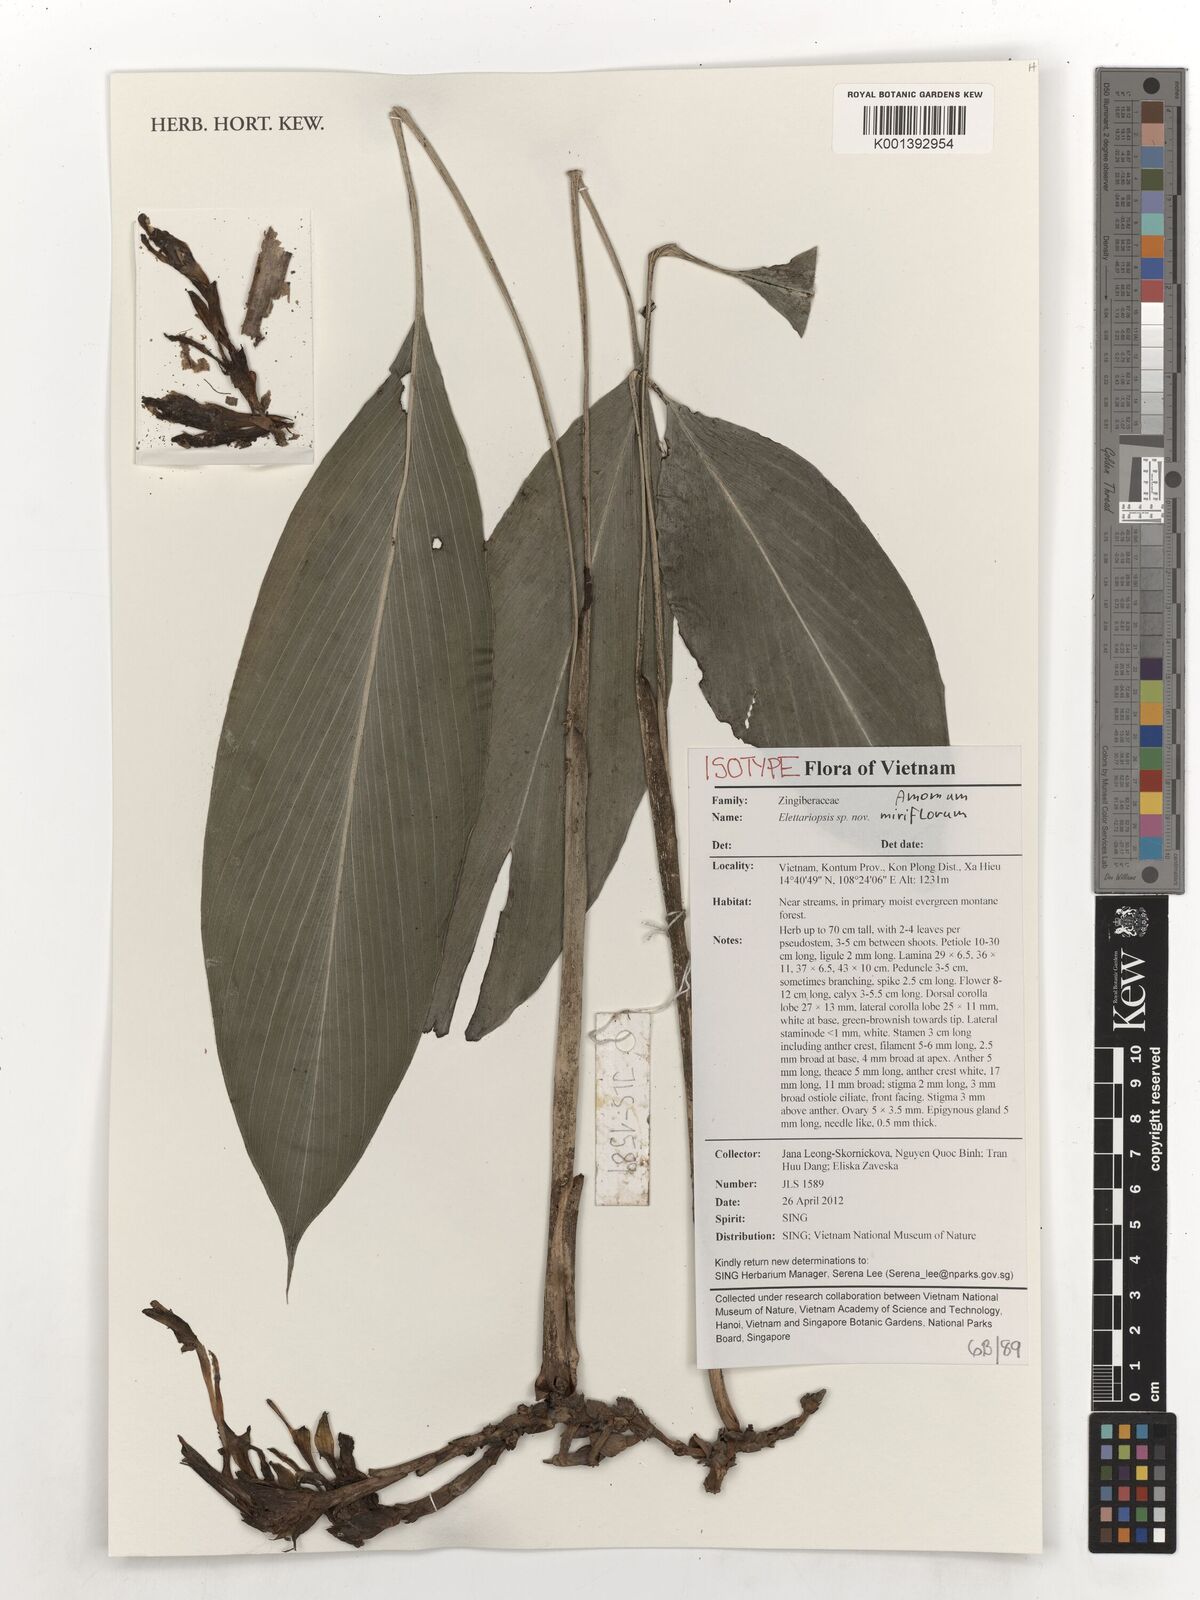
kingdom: Plantae
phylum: Tracheophyta
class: Liliopsida
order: Zingiberales
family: Zingiberaceae
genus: Amomum
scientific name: Amomum miriflorum
